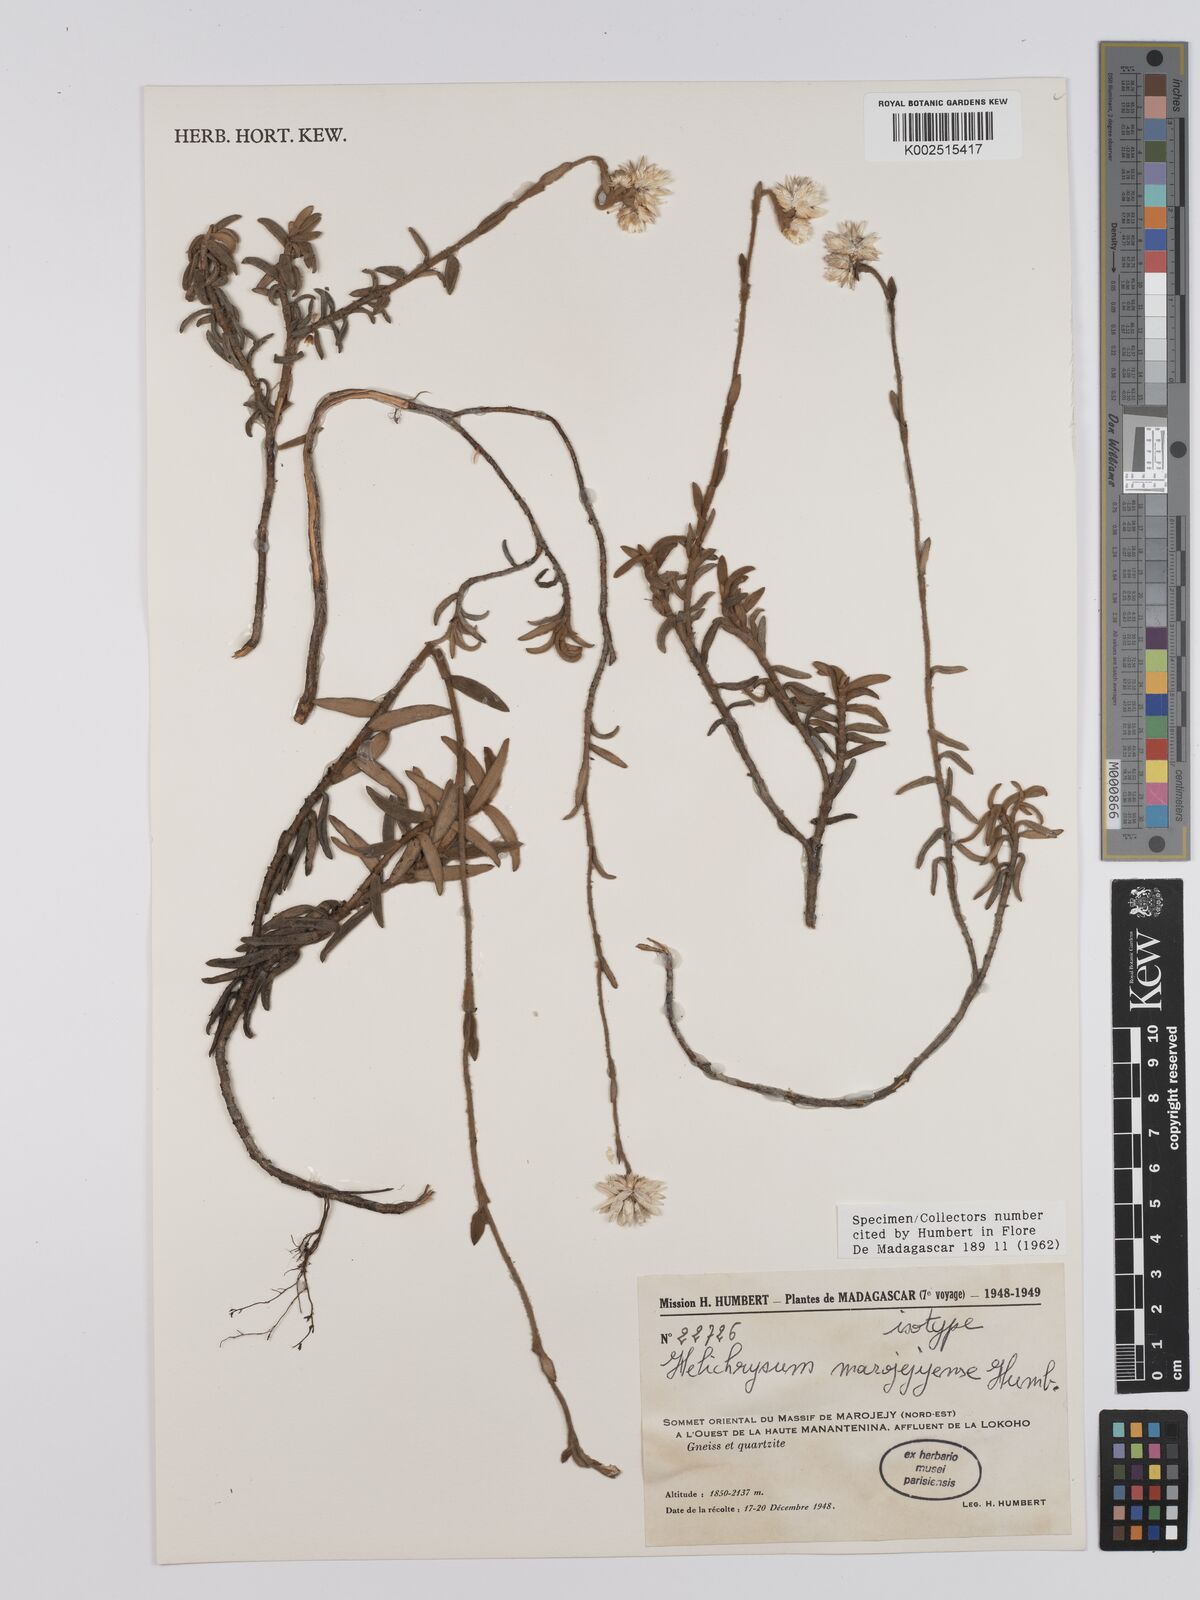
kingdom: Plantae
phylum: Tracheophyta
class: Magnoliopsida
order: Asterales
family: Asteraceae
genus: Helichrysum
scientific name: Helichrysum marojejyense
